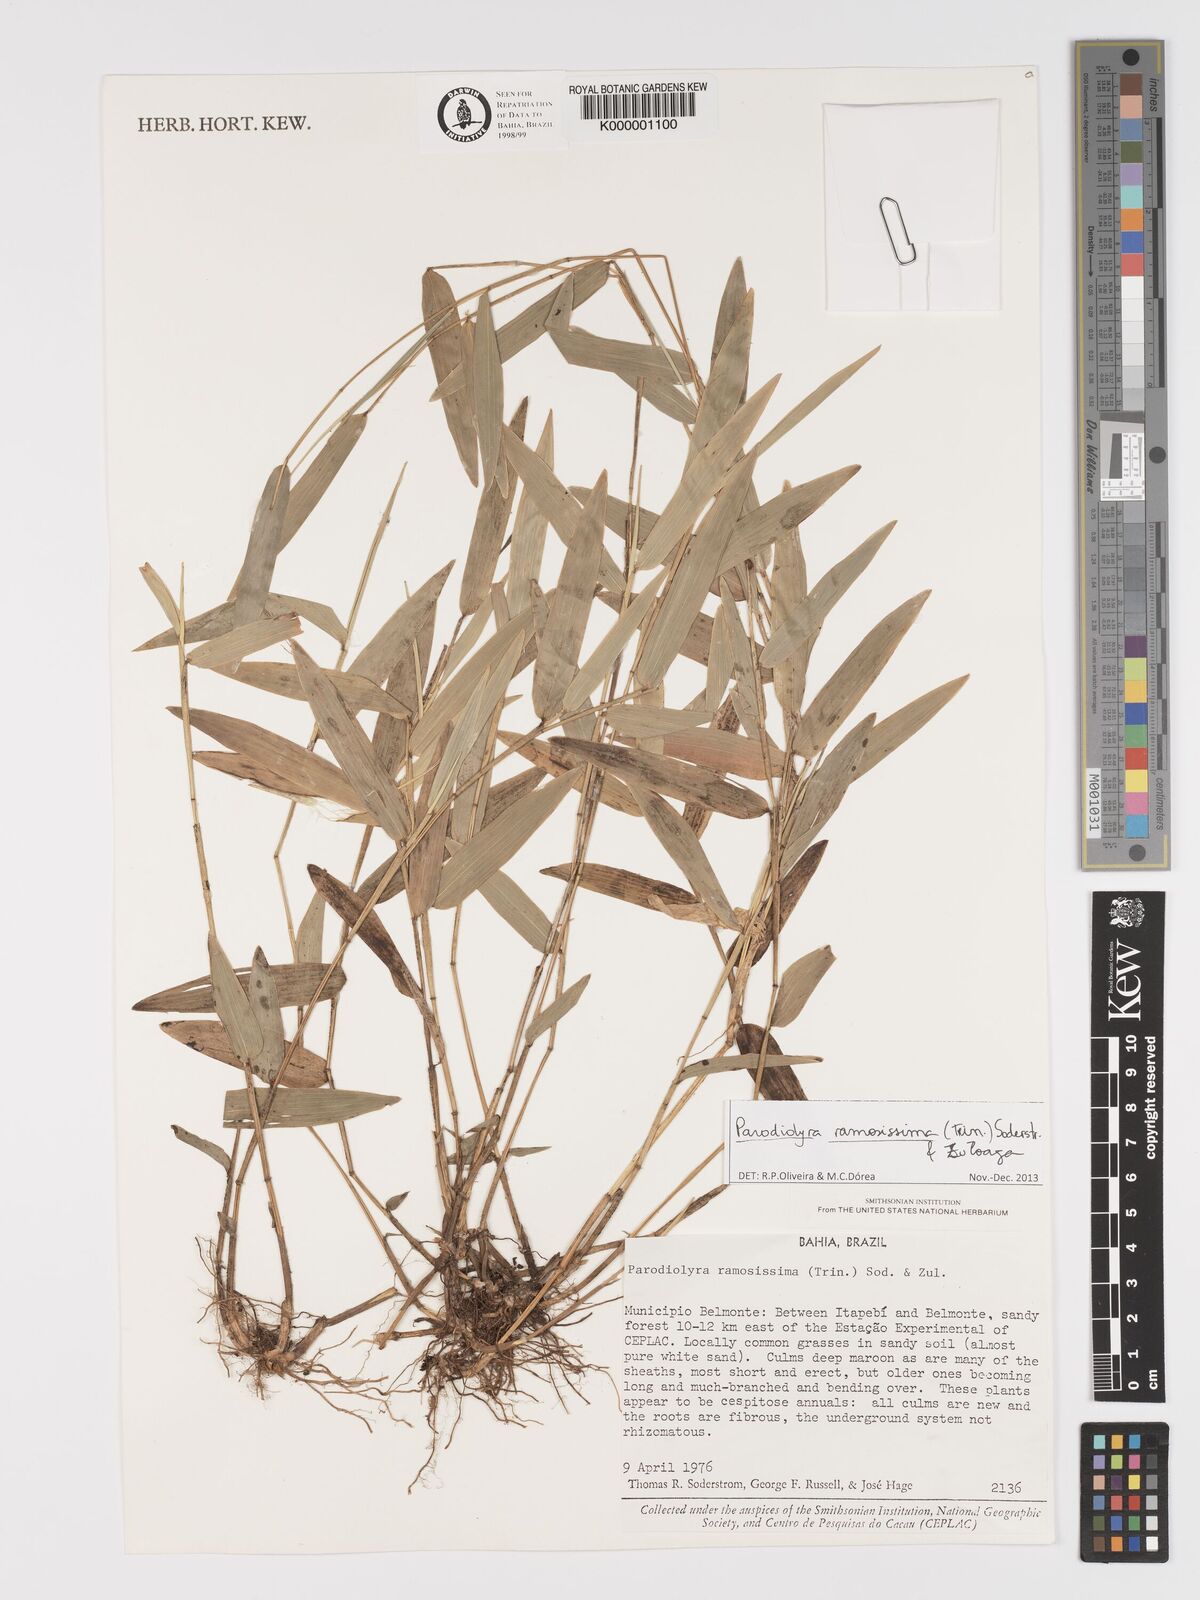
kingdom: Plantae
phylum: Tracheophyta
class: Liliopsida
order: Poales
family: Poaceae
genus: Parodiolyra
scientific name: Parodiolyra ramosissima
